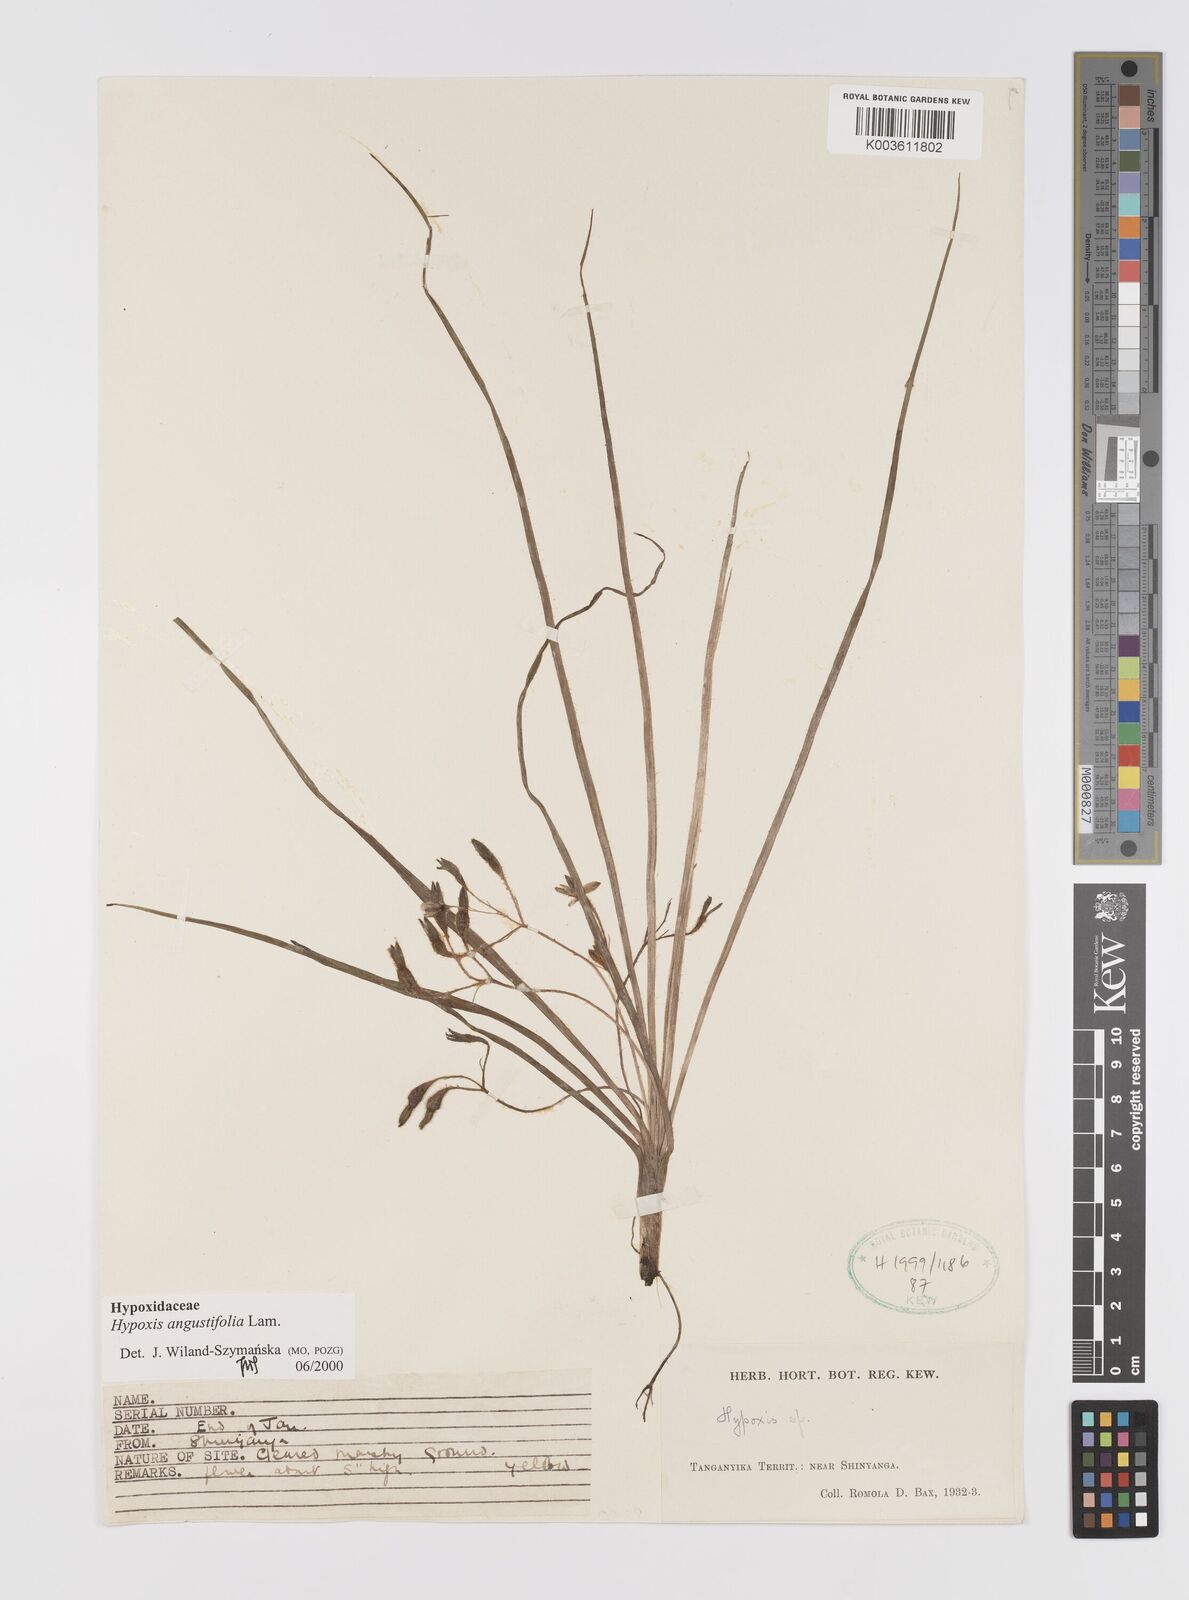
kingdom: Plantae
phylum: Tracheophyta
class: Liliopsida
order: Asparagales
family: Hypoxidaceae
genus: Hypoxis
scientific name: Hypoxis angustifolia
